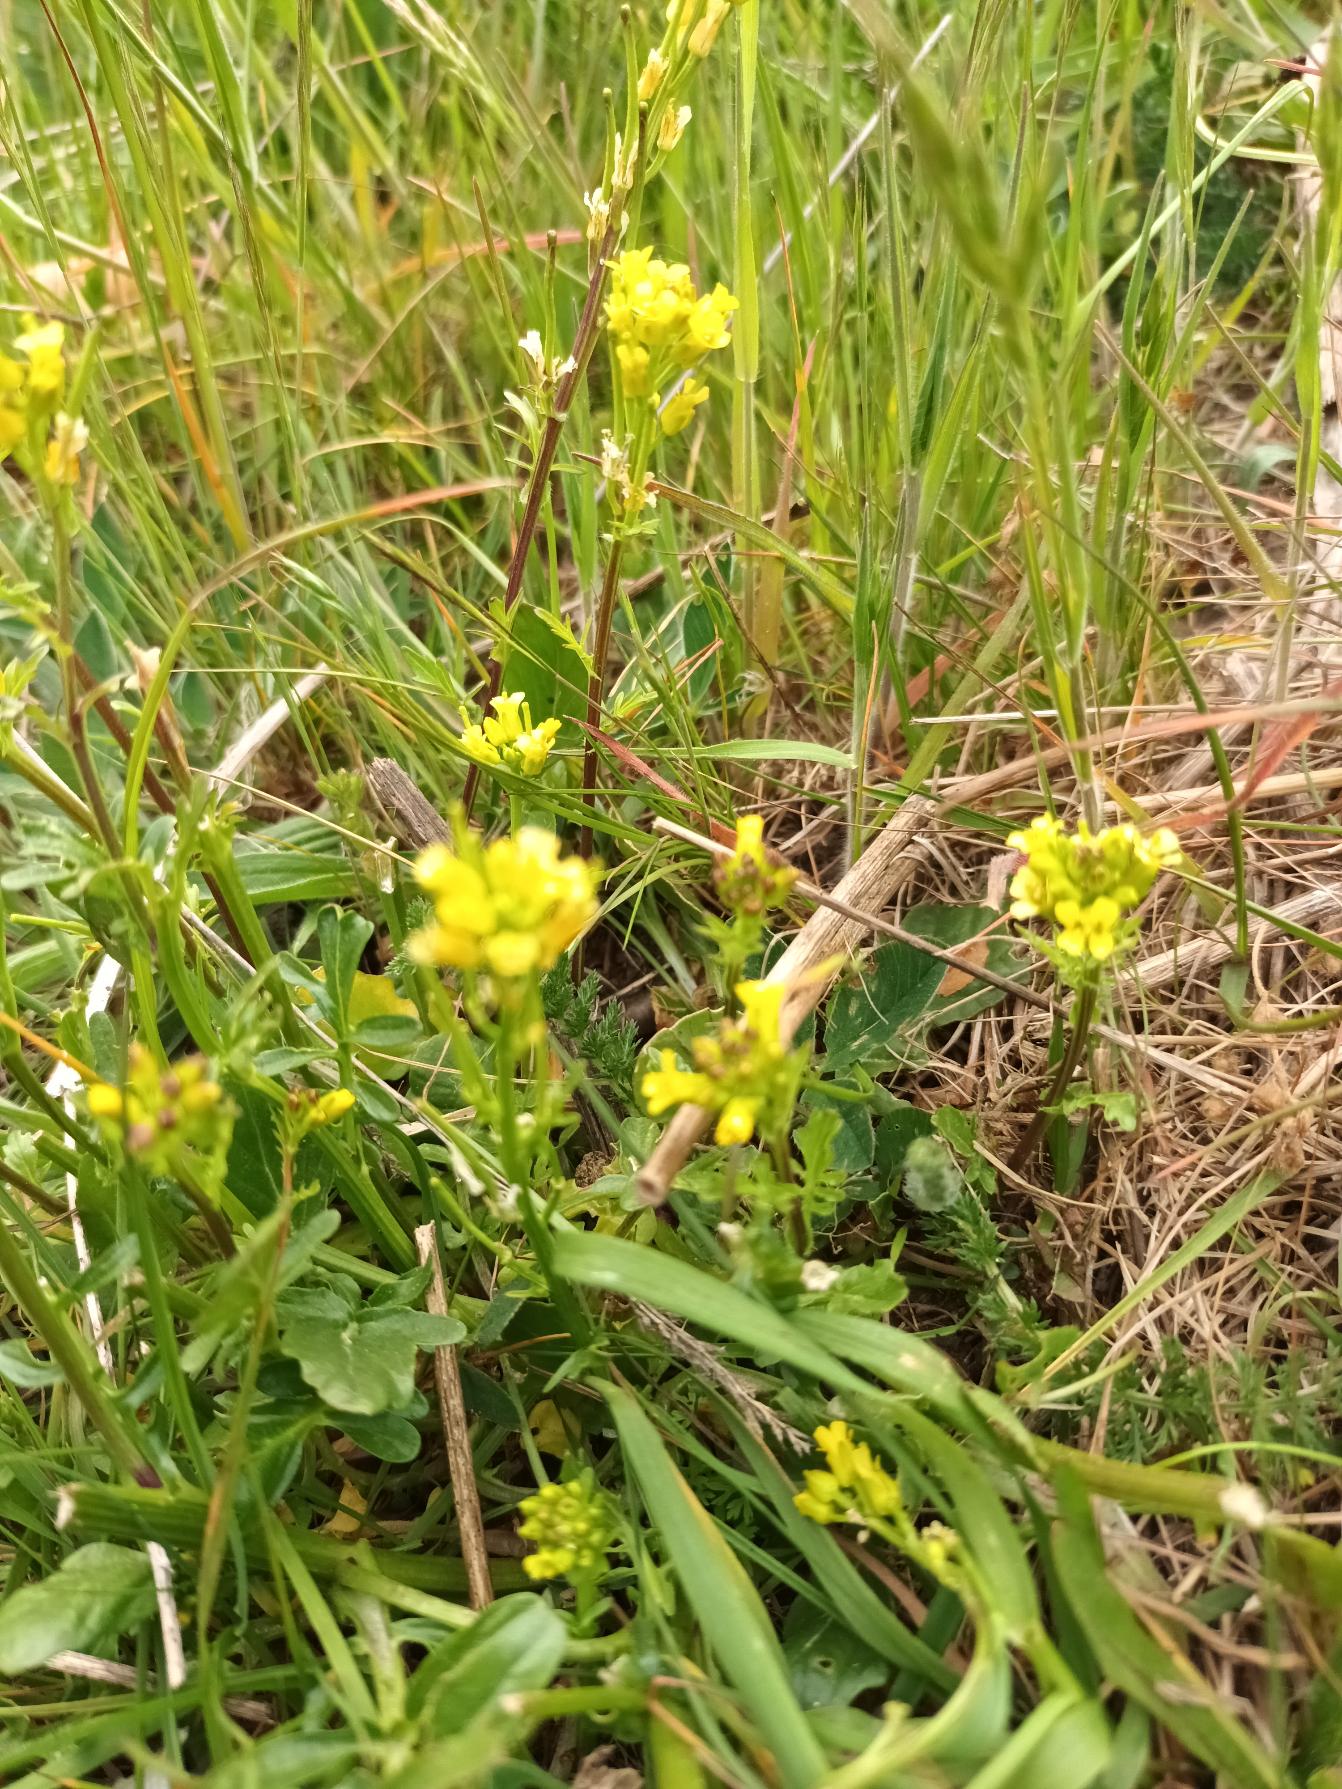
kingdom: Plantae
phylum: Tracheophyta
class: Magnoliopsida
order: Brassicales
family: Brassicaceae
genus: Barbarea
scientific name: Barbarea intermedia
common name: Randhåret vinterkarse
